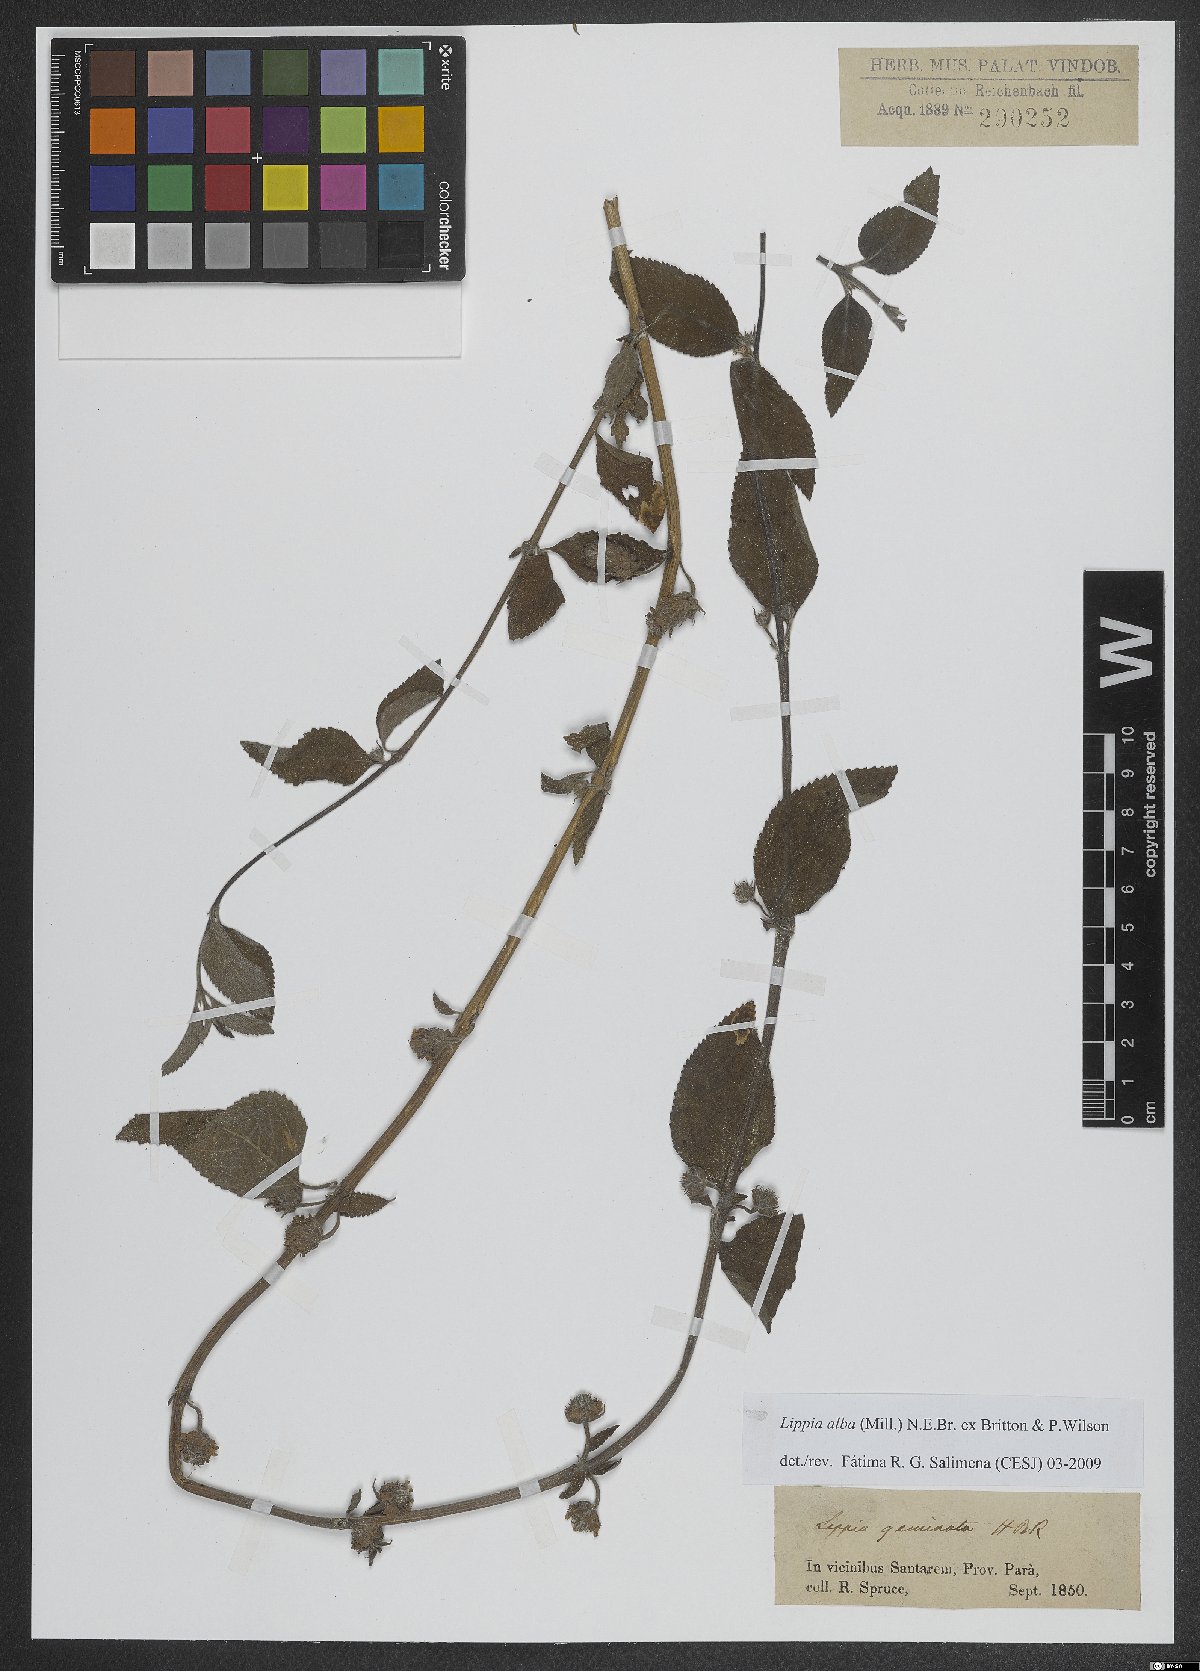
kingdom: Plantae
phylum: Tracheophyta
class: Magnoliopsida
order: Lamiales
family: Verbenaceae
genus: Lippia
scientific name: Lippia alba
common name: Bushy matgrass
